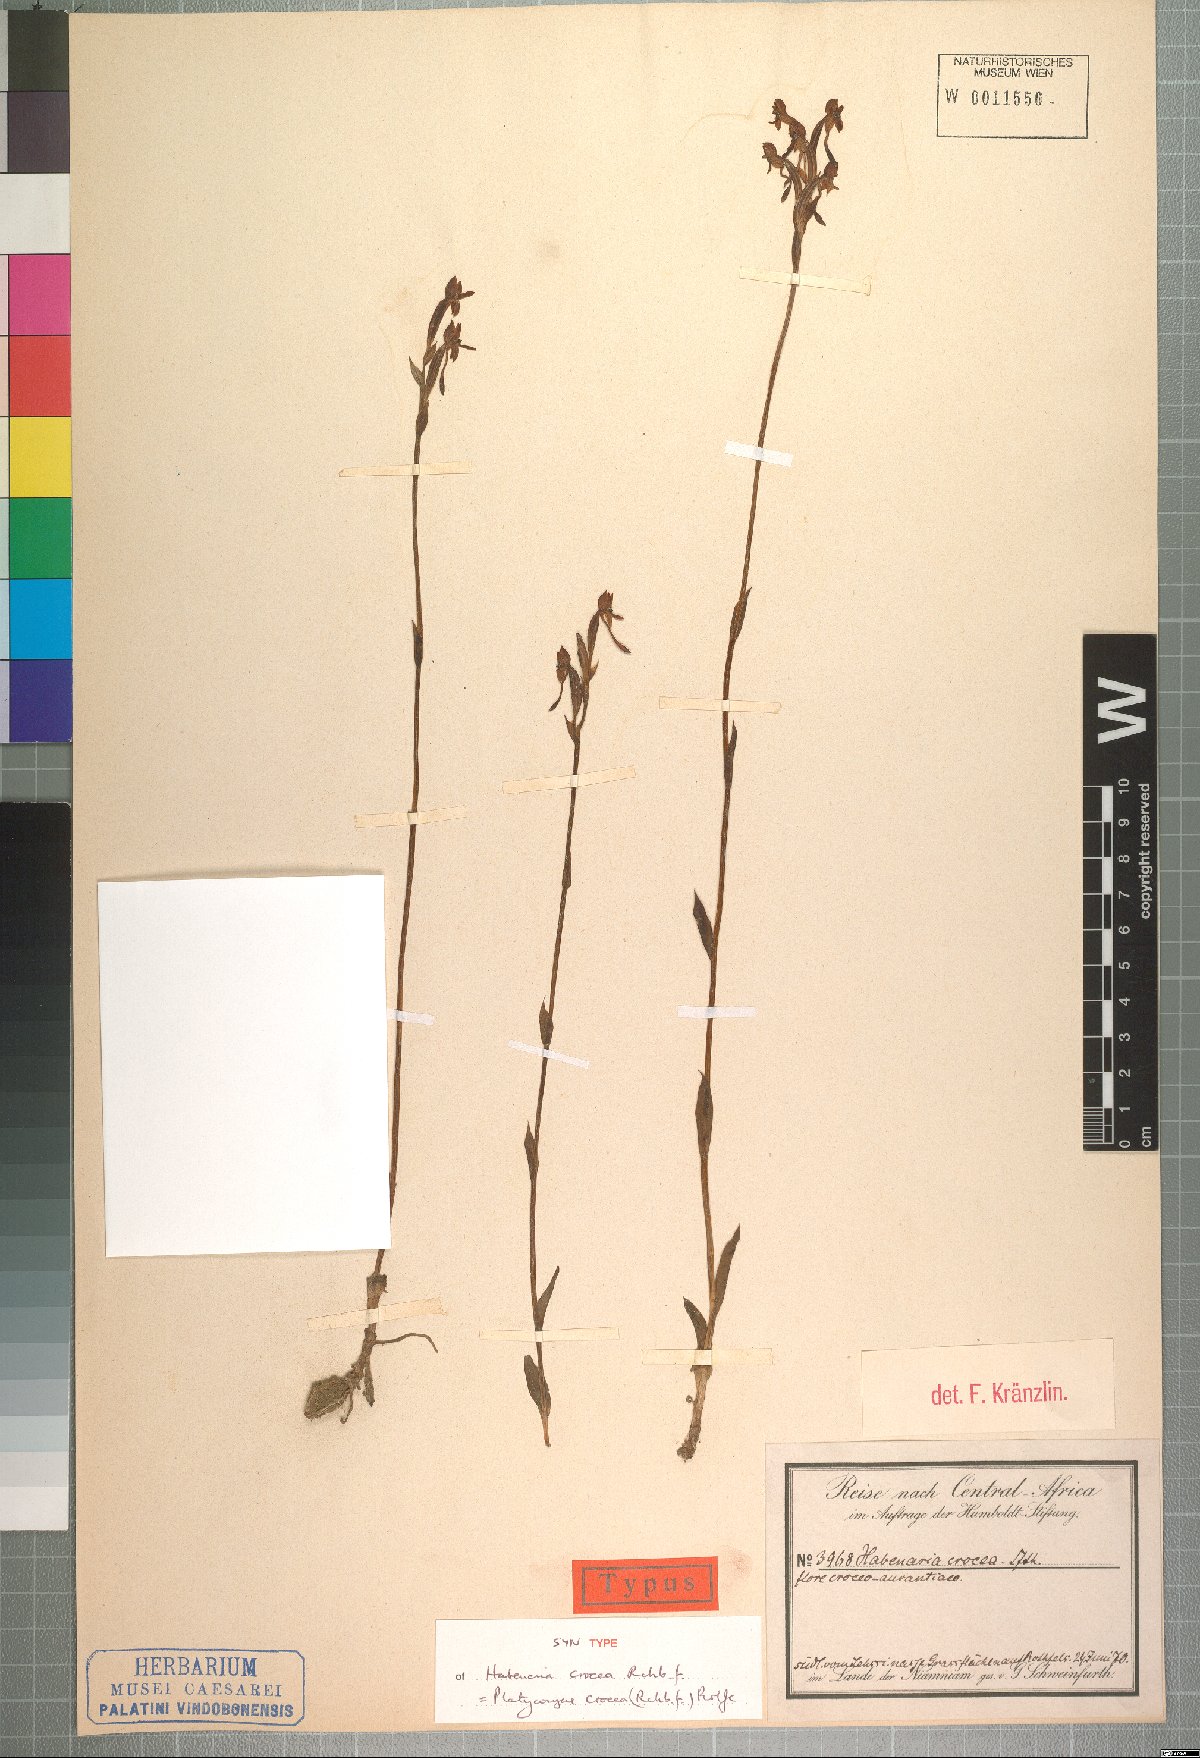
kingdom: Plantae
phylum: Tracheophyta
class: Liliopsida
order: Asparagales
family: Orchidaceae
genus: Platycoryne
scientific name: Platycoryne crocea
